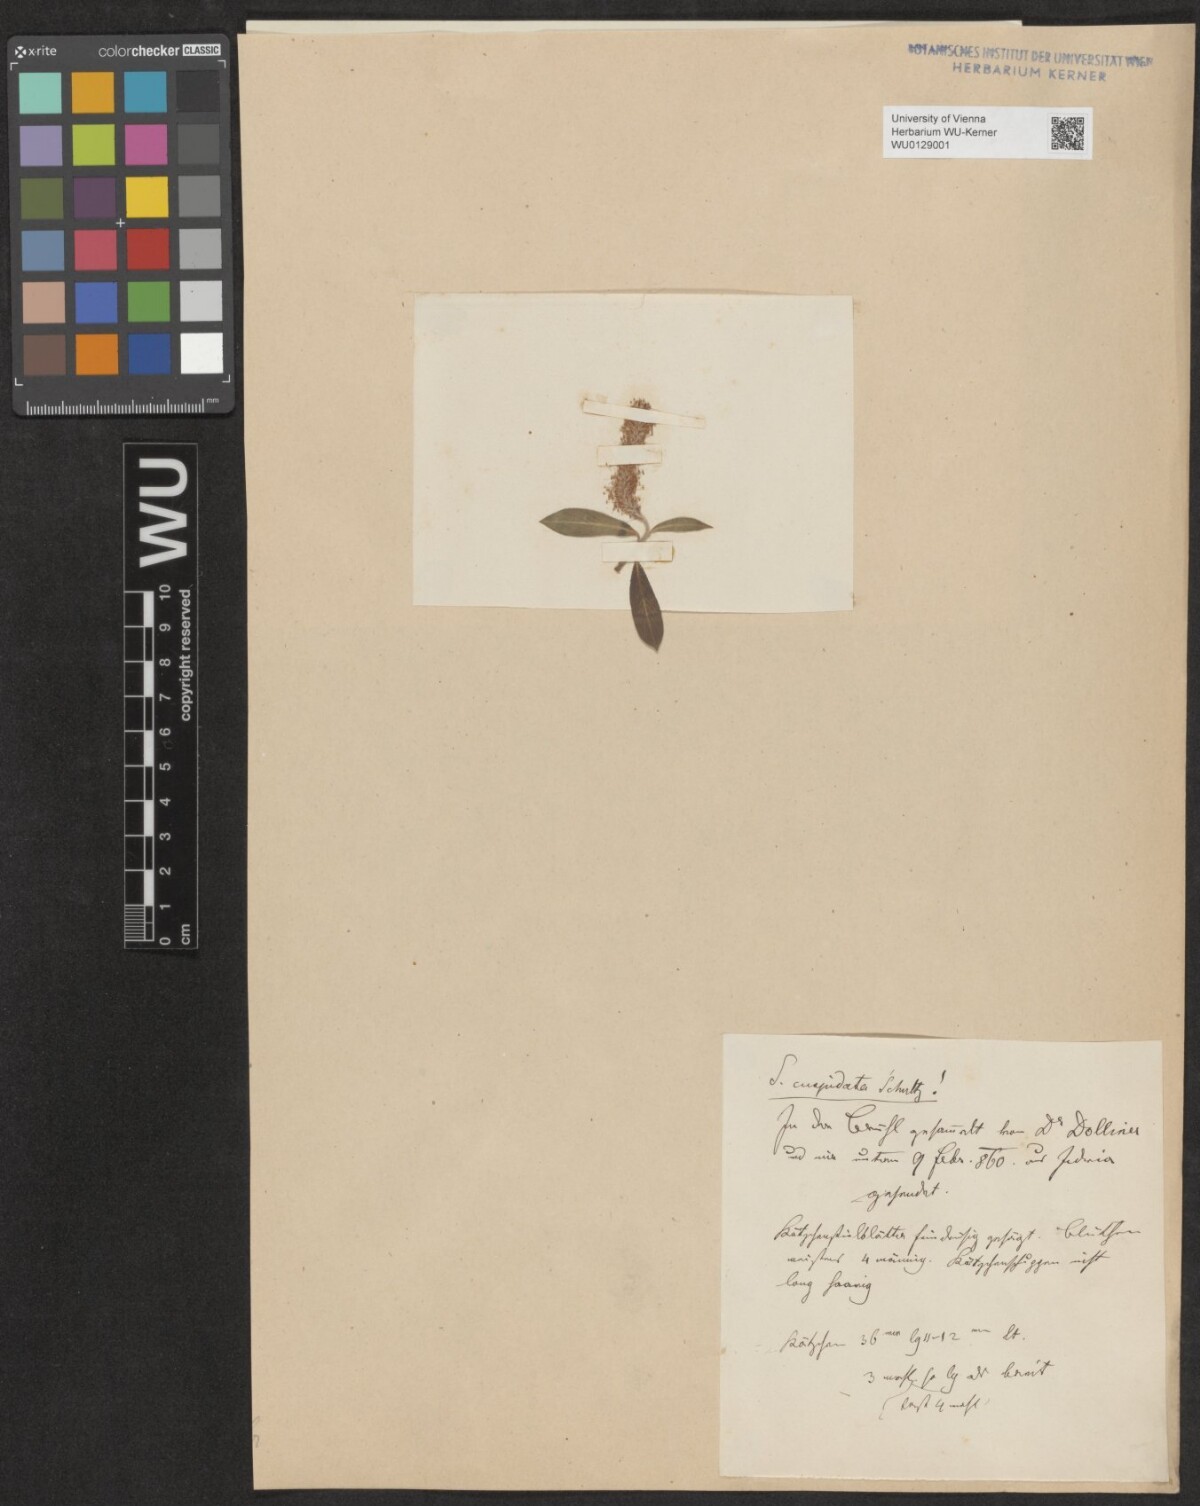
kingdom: Plantae
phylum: Tracheophyta
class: Magnoliopsida
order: Malpighiales
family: Salicaceae
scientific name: Salicaceae
